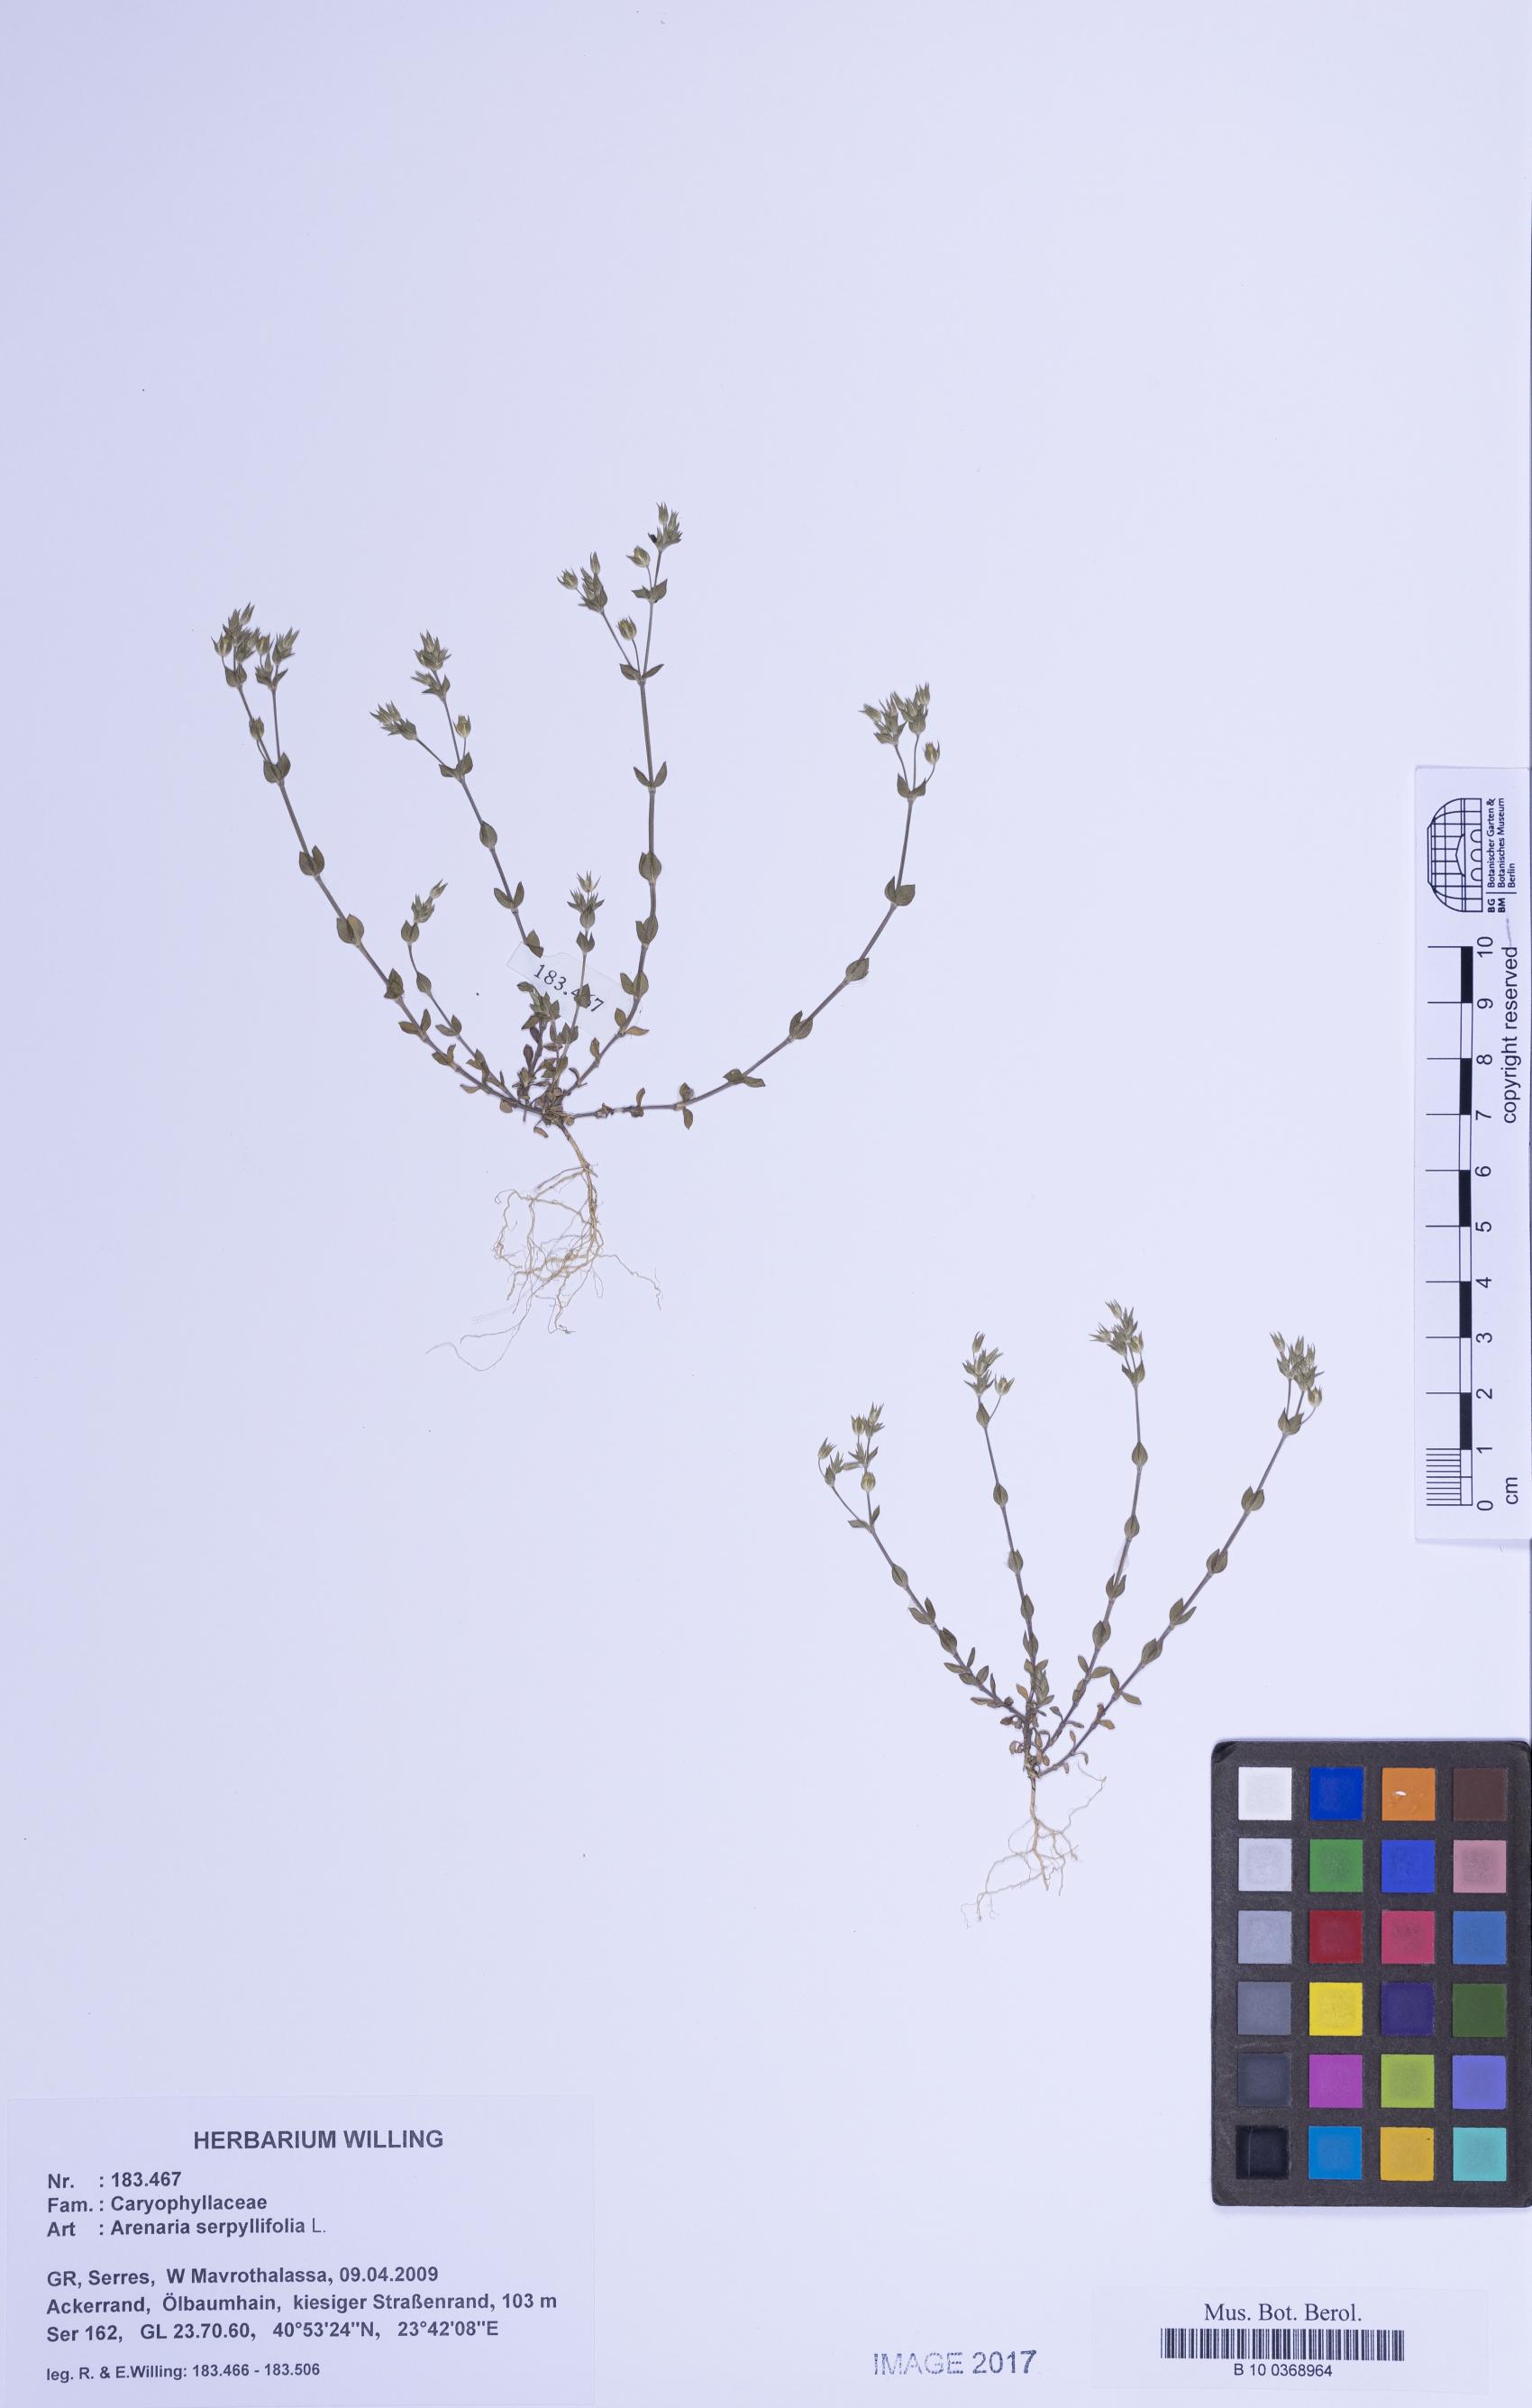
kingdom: Plantae
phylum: Tracheophyta
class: Magnoliopsida
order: Caryophyllales
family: Caryophyllaceae
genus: Arenaria
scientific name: Arenaria serpyllifolia
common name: Thyme-leaved sandwort
